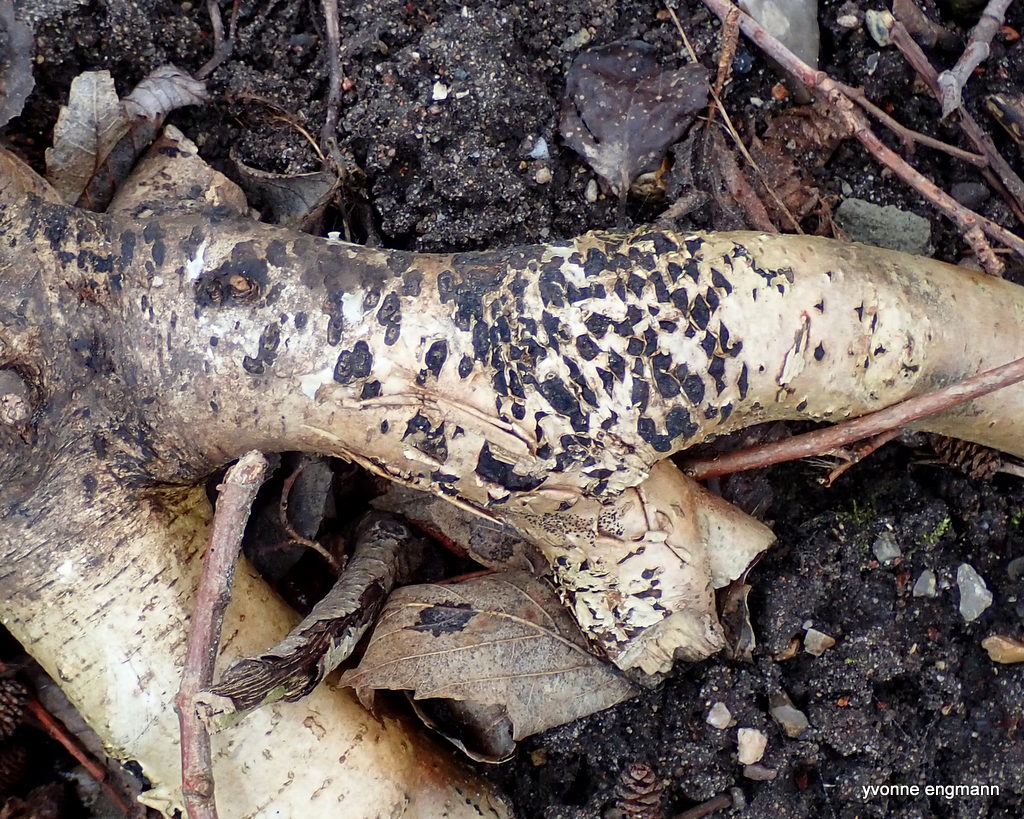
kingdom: Fungi
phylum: Ascomycota
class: Sordariomycetes
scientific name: Sordariomycetes
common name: kernesvampklassen
